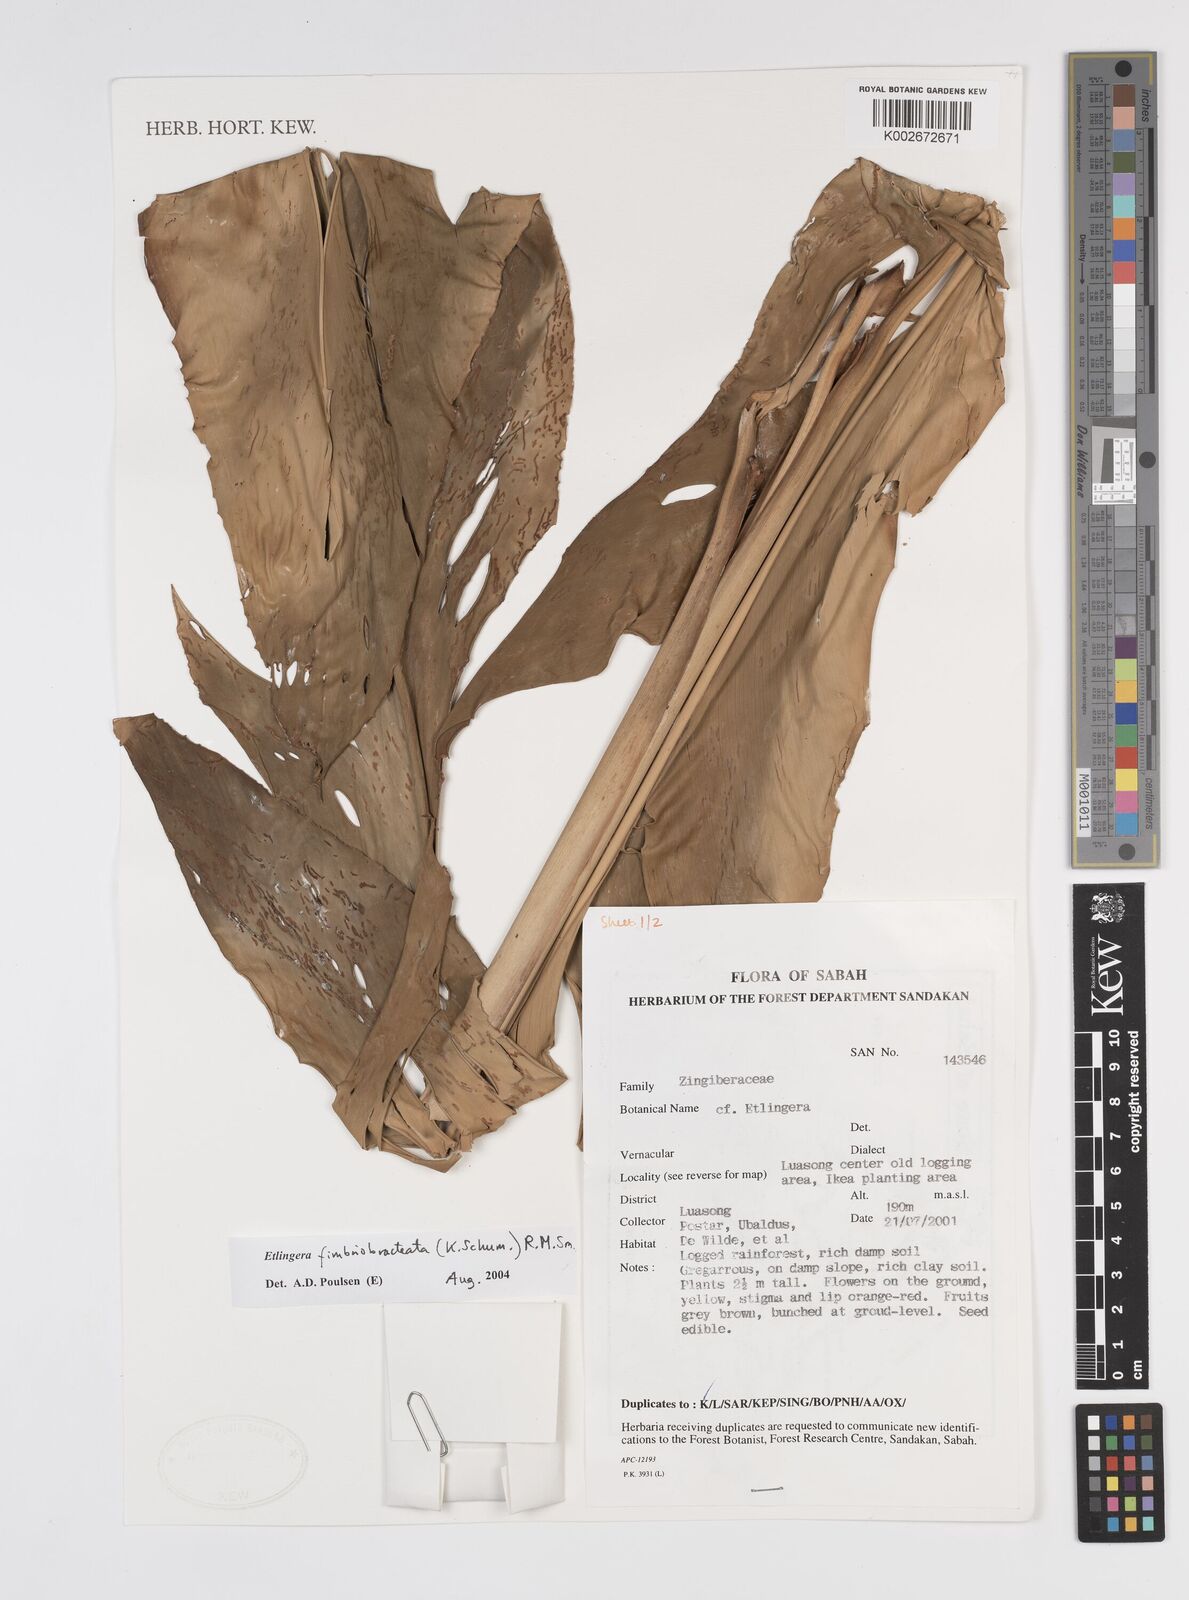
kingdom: Plantae
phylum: Tracheophyta
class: Liliopsida
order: Zingiberales
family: Zingiberaceae
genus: Etlingera
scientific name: Etlingera fimbriobracteata
